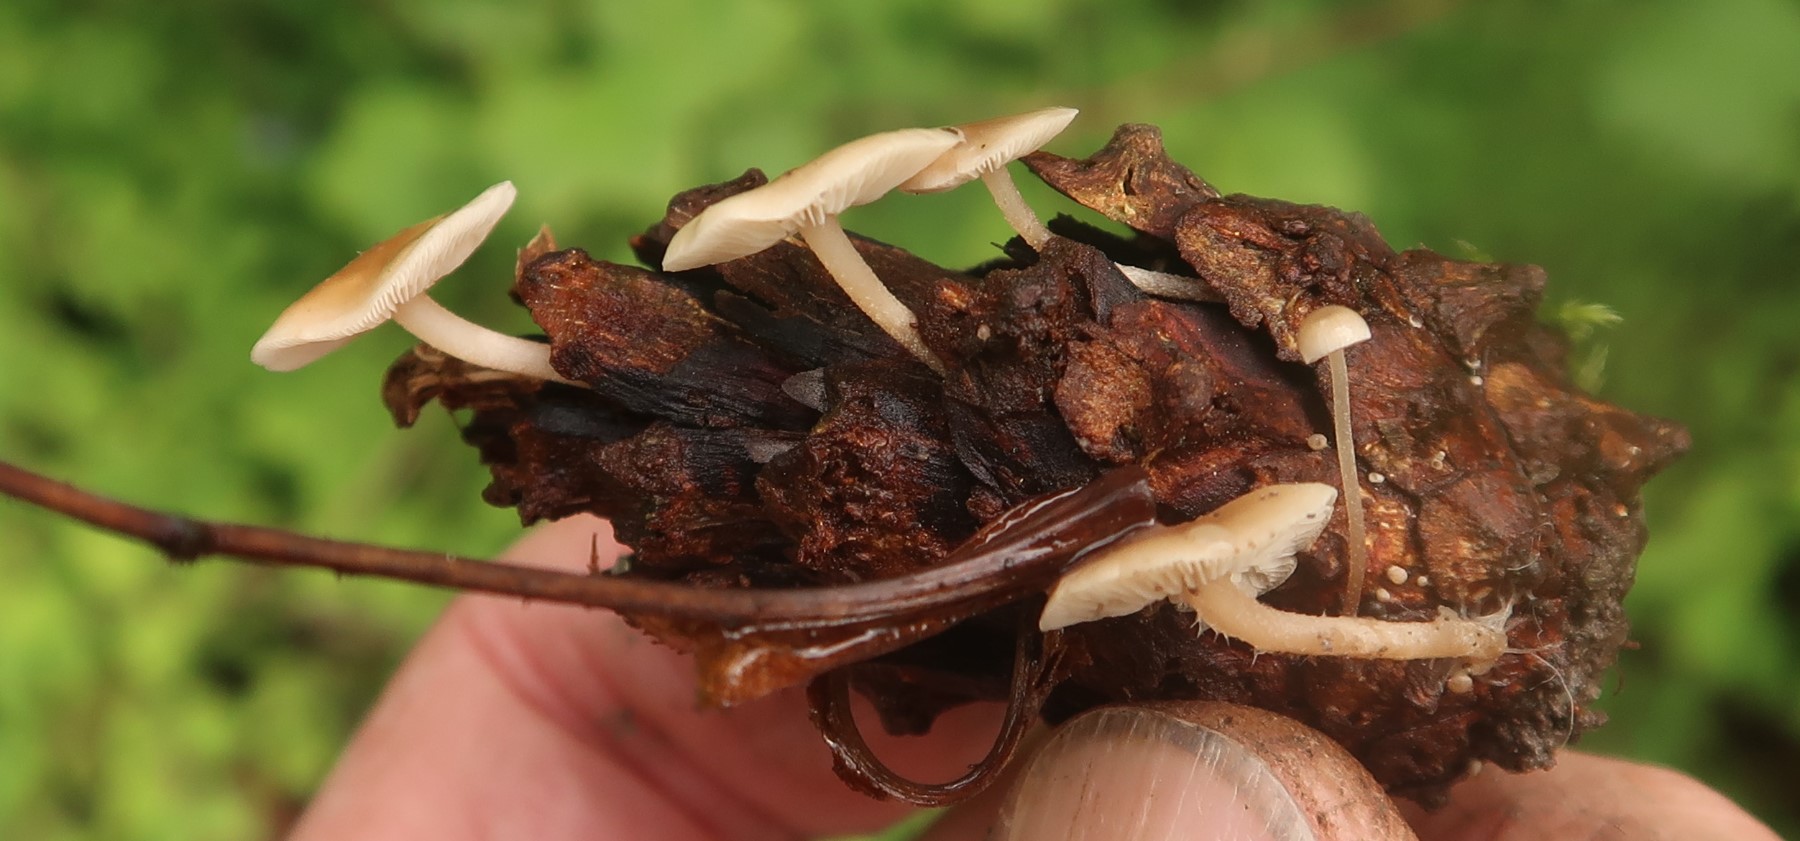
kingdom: Fungi
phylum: Basidiomycota
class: Agaricomycetes
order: Agaricales
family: Marasmiaceae
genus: Baeospora
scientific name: Baeospora myosura
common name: koglebruskhat
